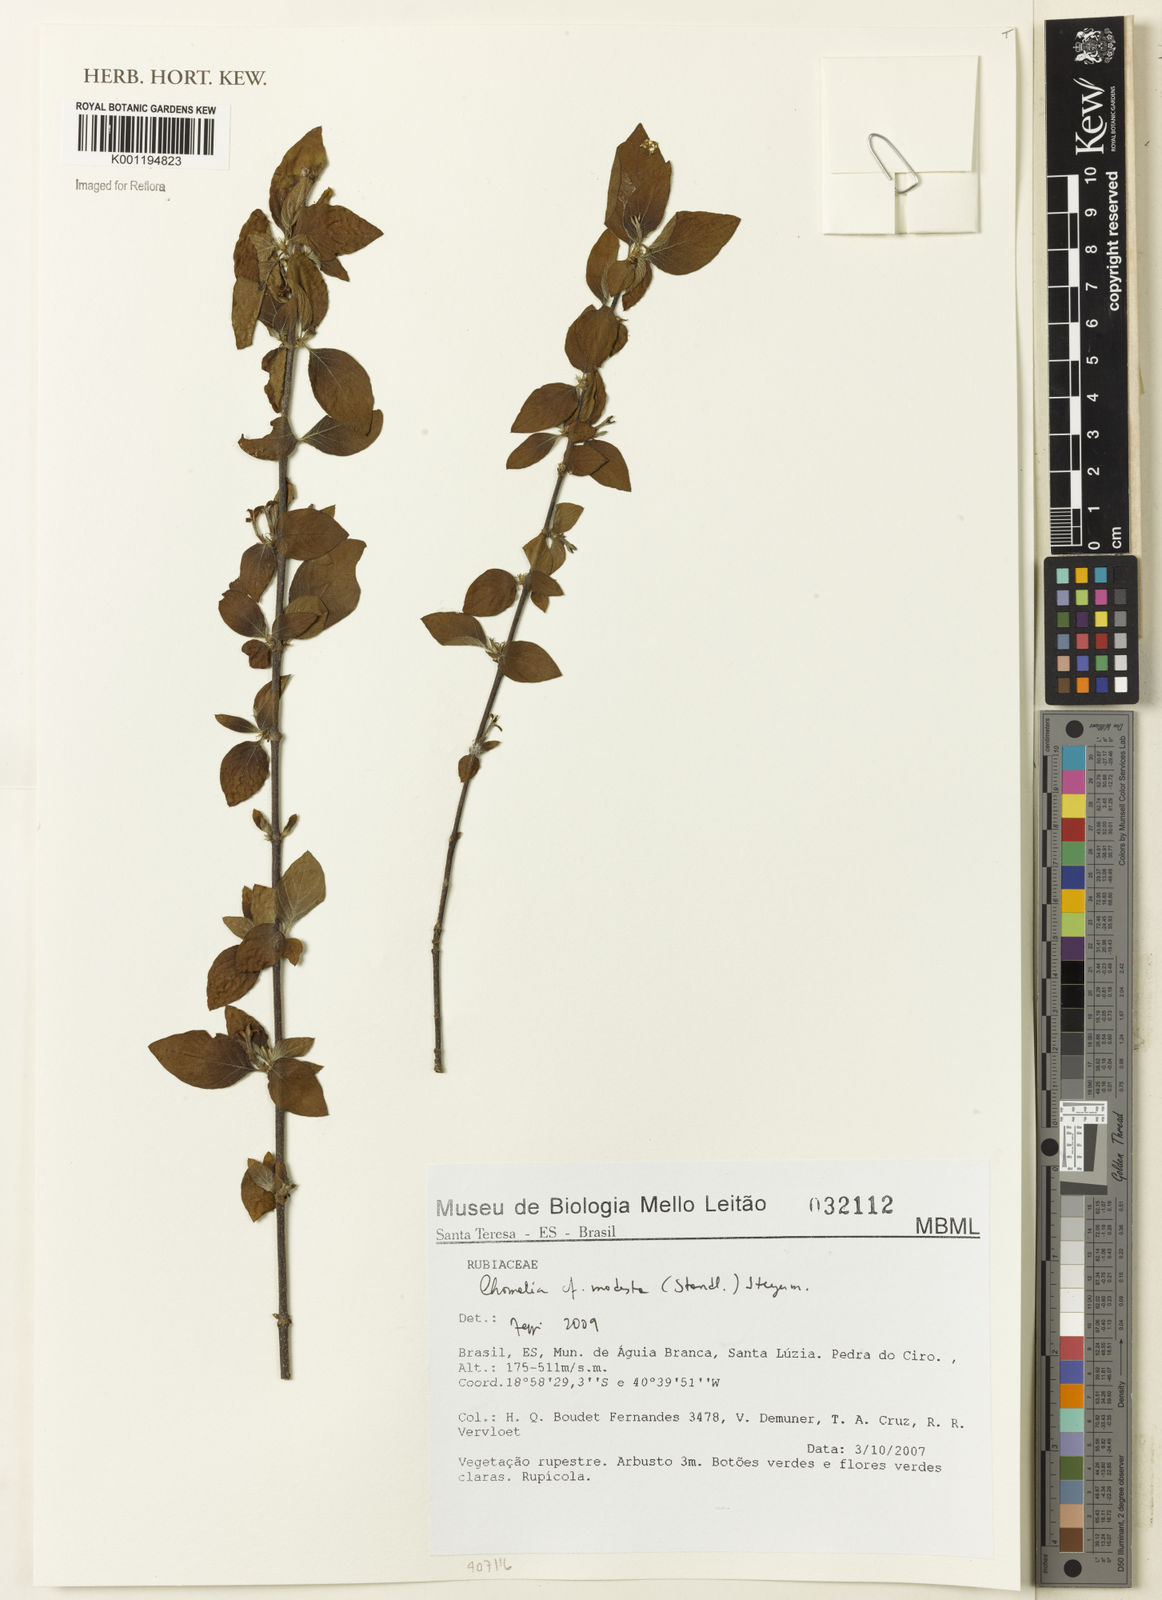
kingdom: Plantae
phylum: Tracheophyta
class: Magnoliopsida
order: Gentianales
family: Rubiaceae
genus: Chomelia
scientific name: Chomelia modesta
